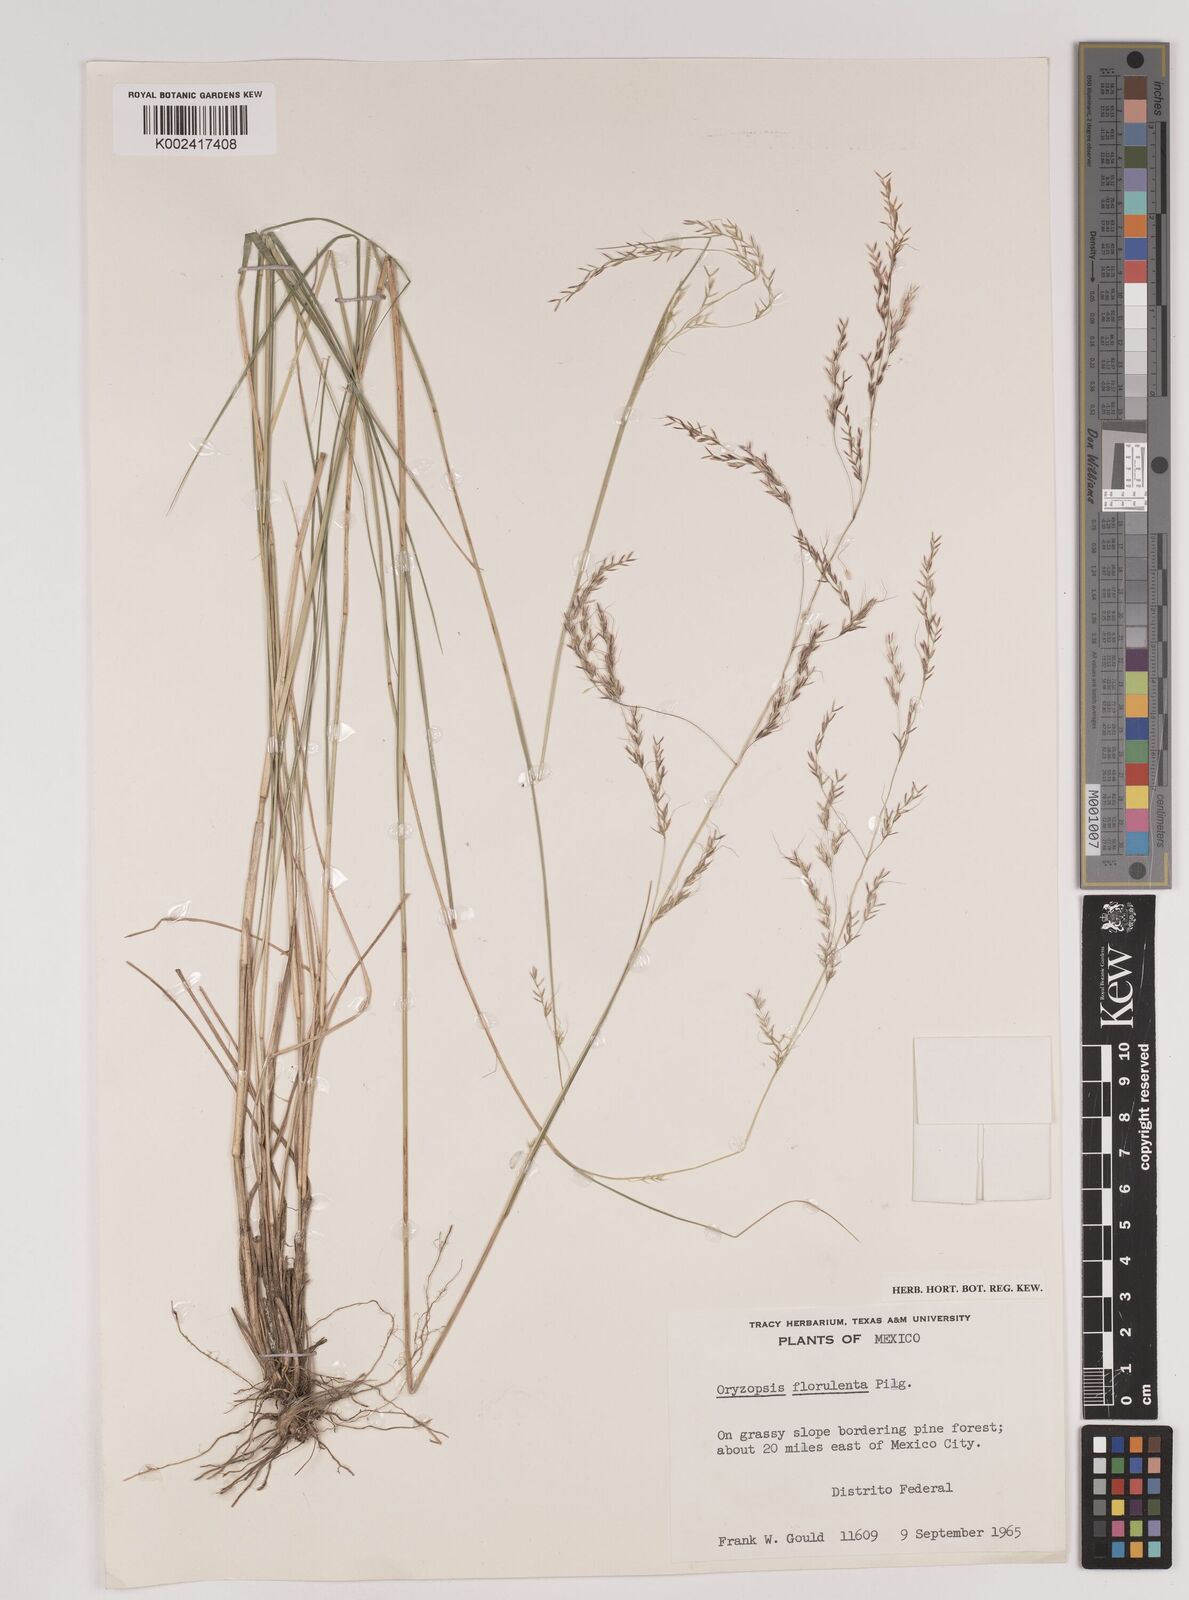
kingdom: Plantae
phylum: Tracheophyta
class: Liliopsida
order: Poales
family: Poaceae
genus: Nassella
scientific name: Nassella caespitosa
